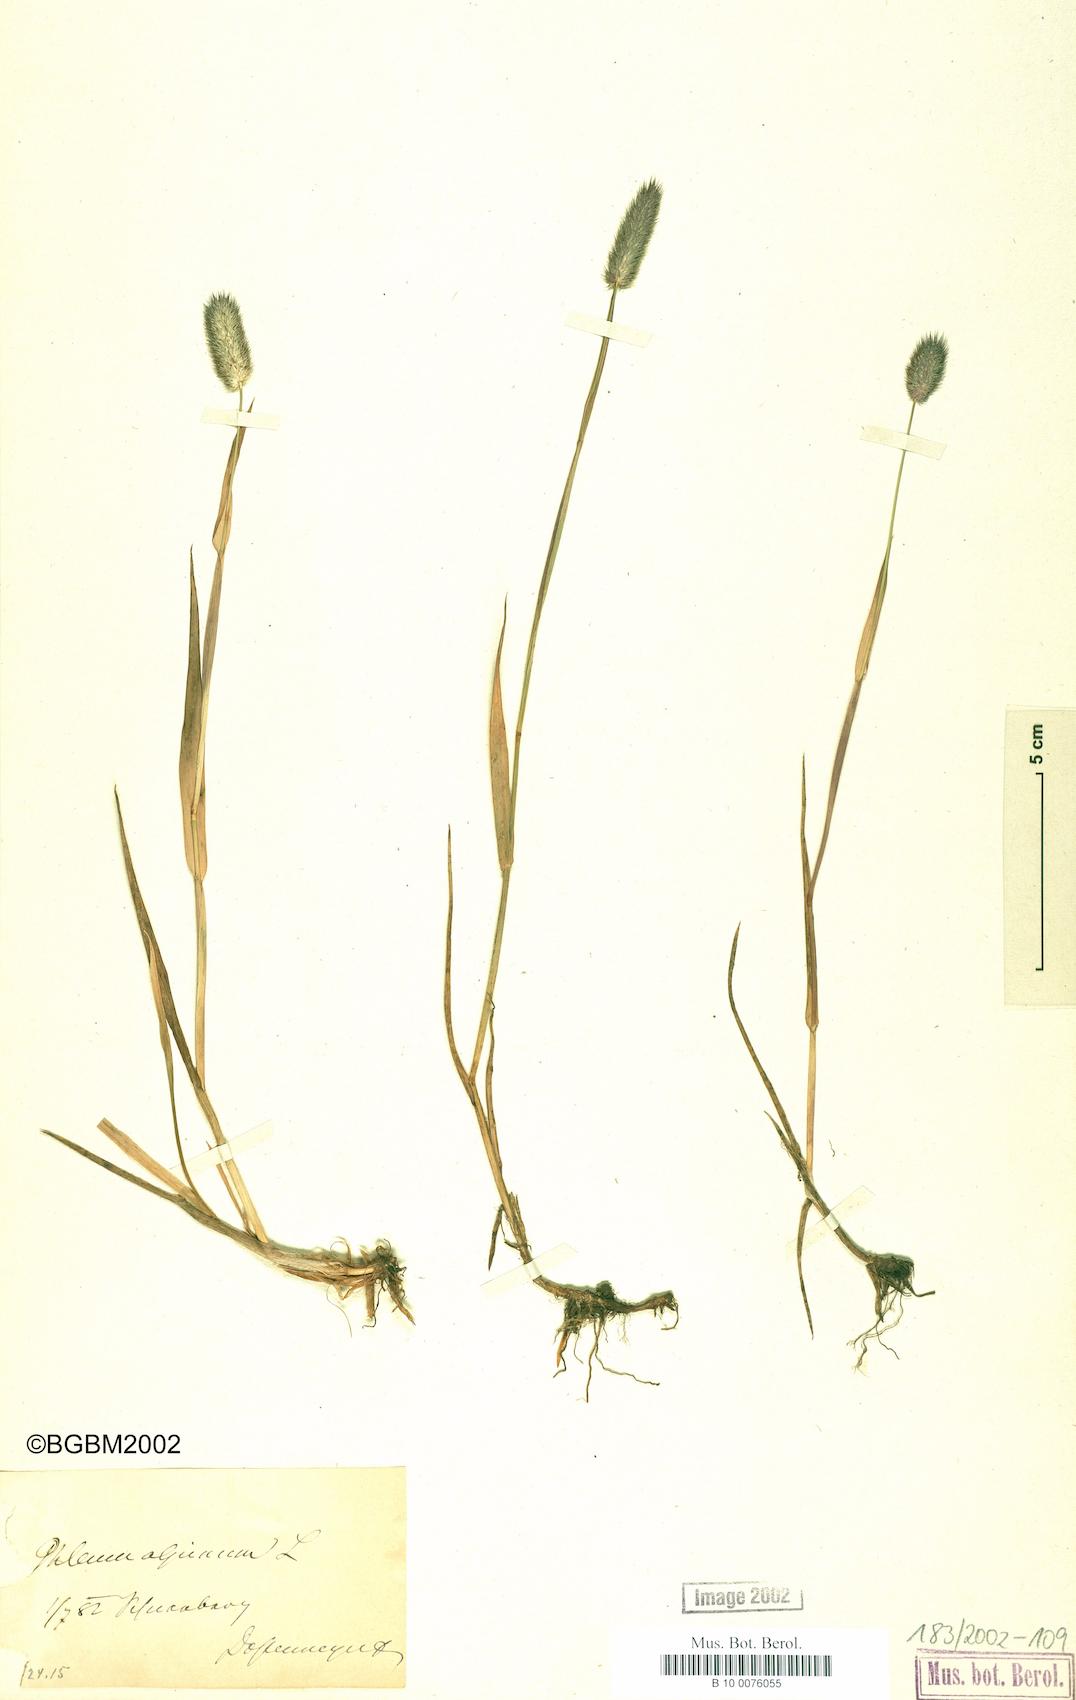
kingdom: Plantae
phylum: Tracheophyta
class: Liliopsida
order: Poales
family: Poaceae
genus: Phleum
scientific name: Phleum alpinum
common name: Alpine cat's-tail
